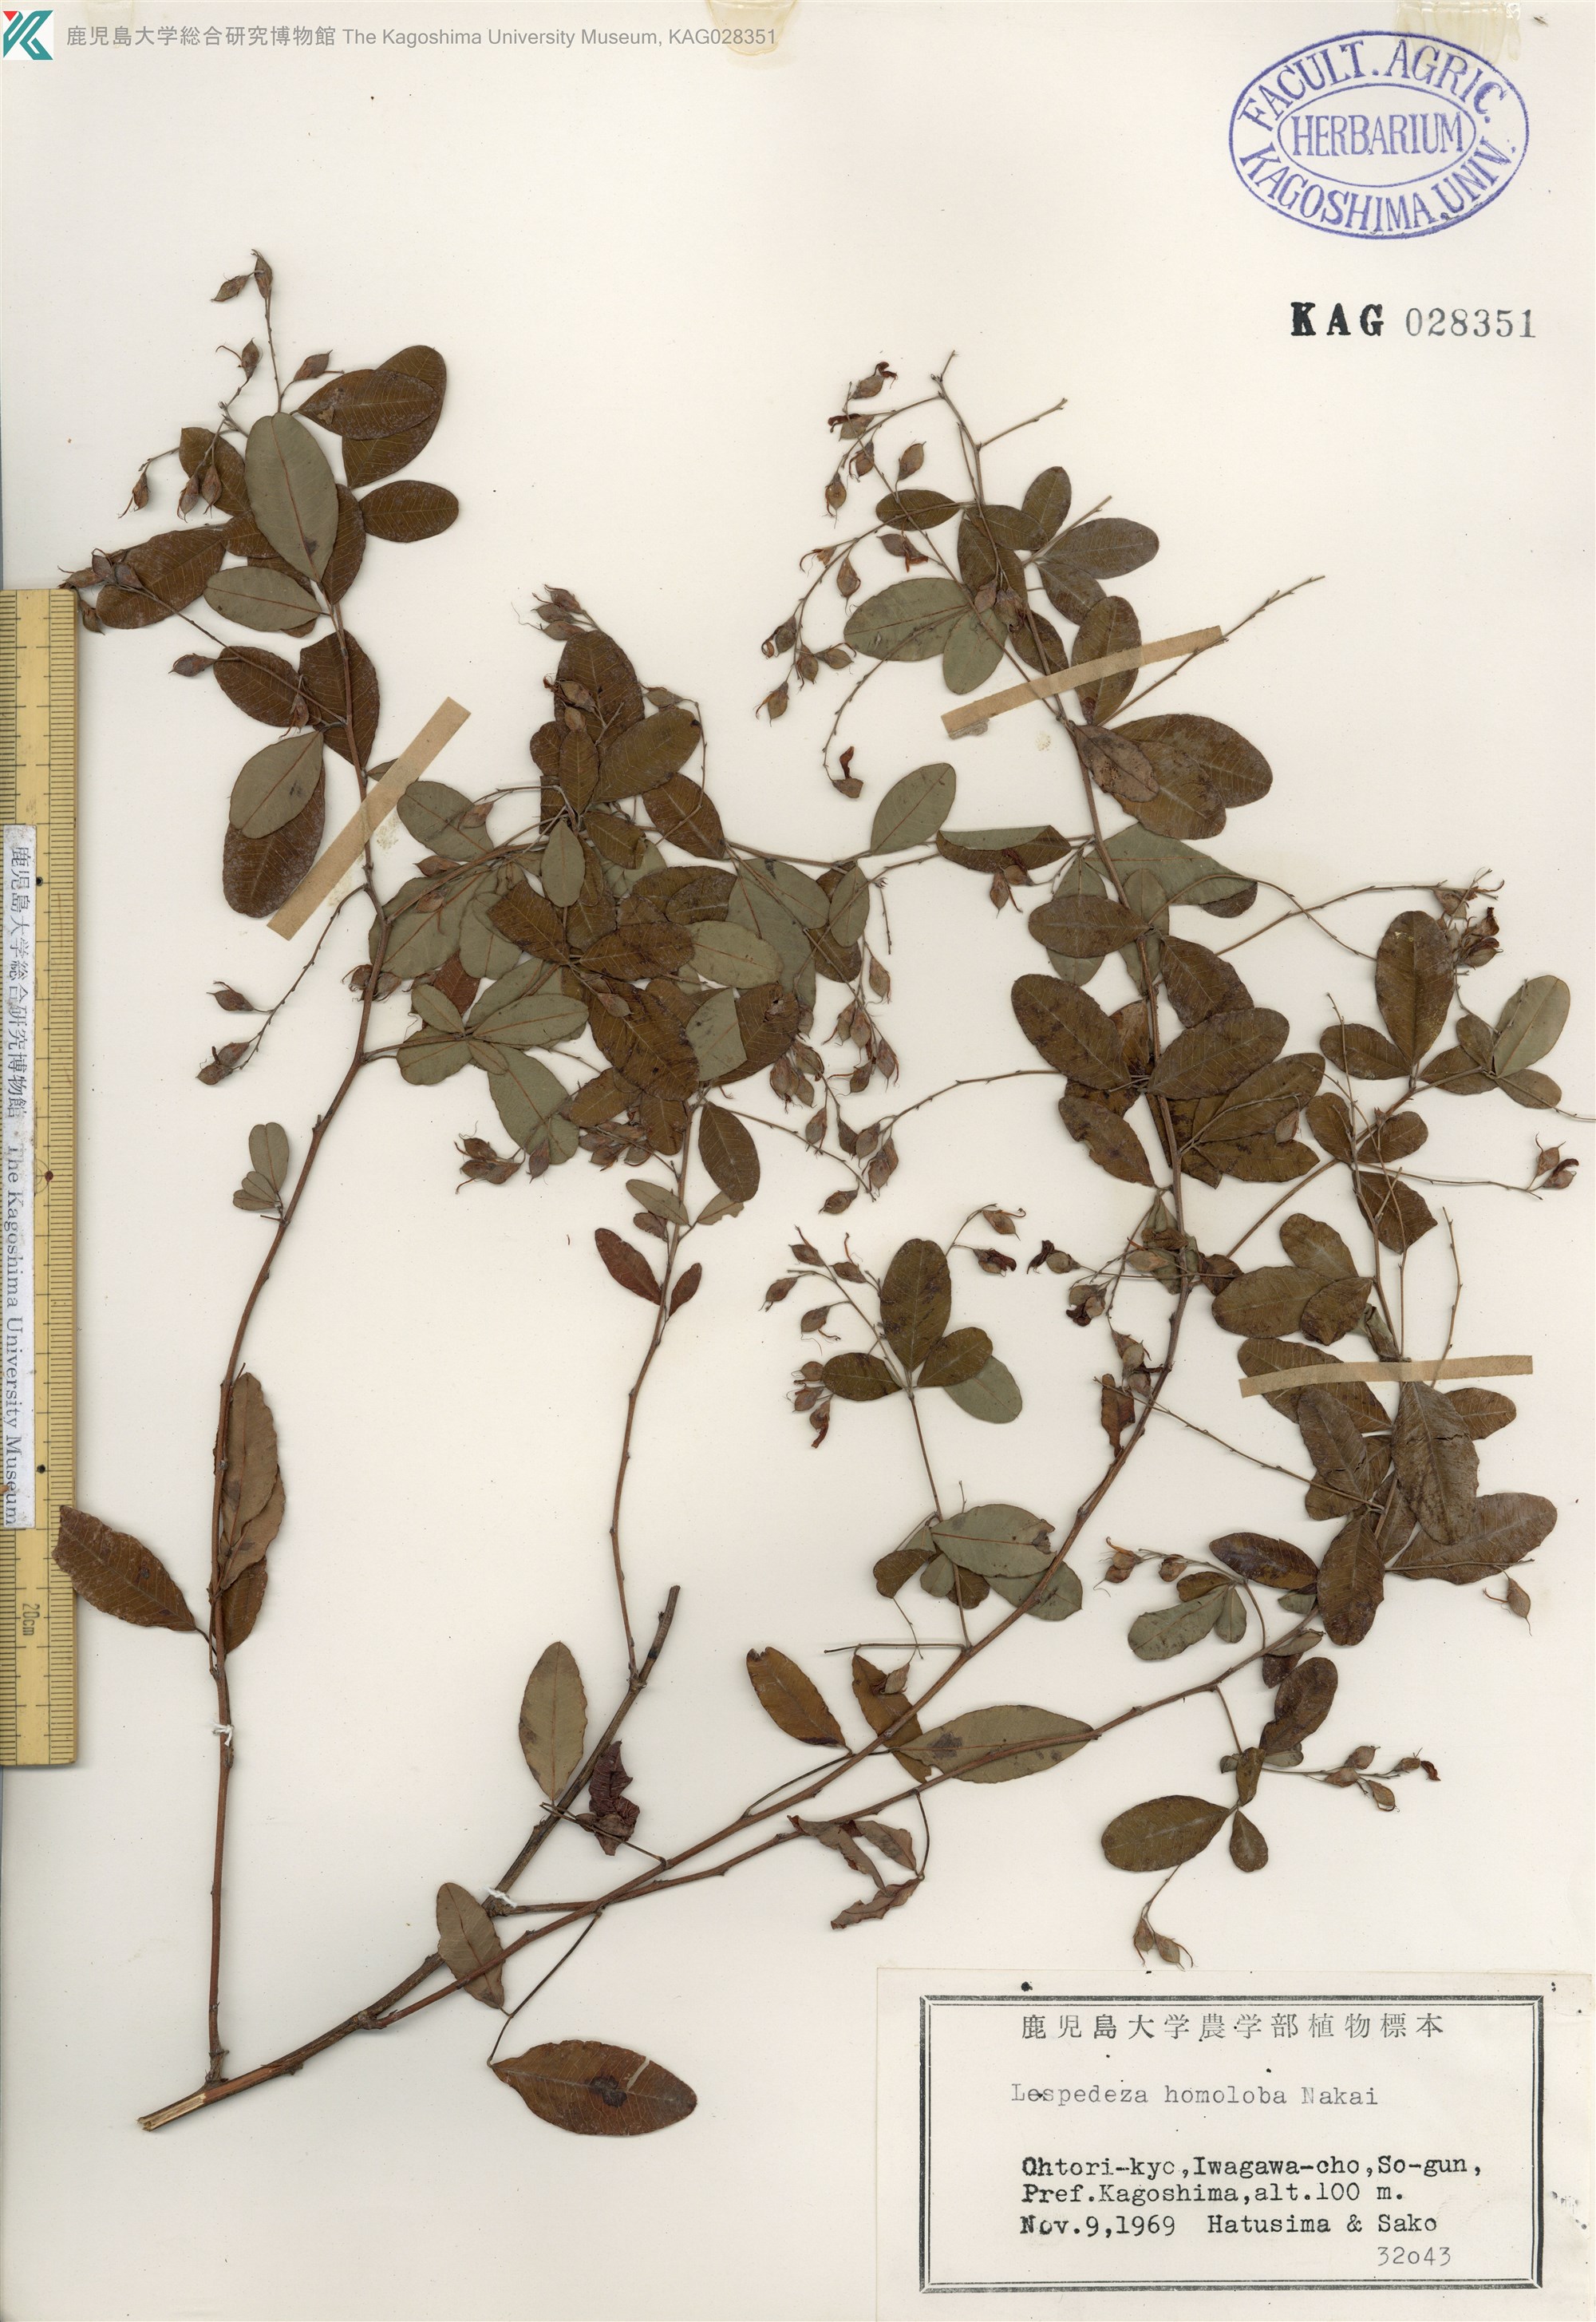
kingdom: Plantae
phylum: Tracheophyta
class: Magnoliopsida
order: Fabales
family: Fabaceae
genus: Lespedeza
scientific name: Lespedeza homoloba
